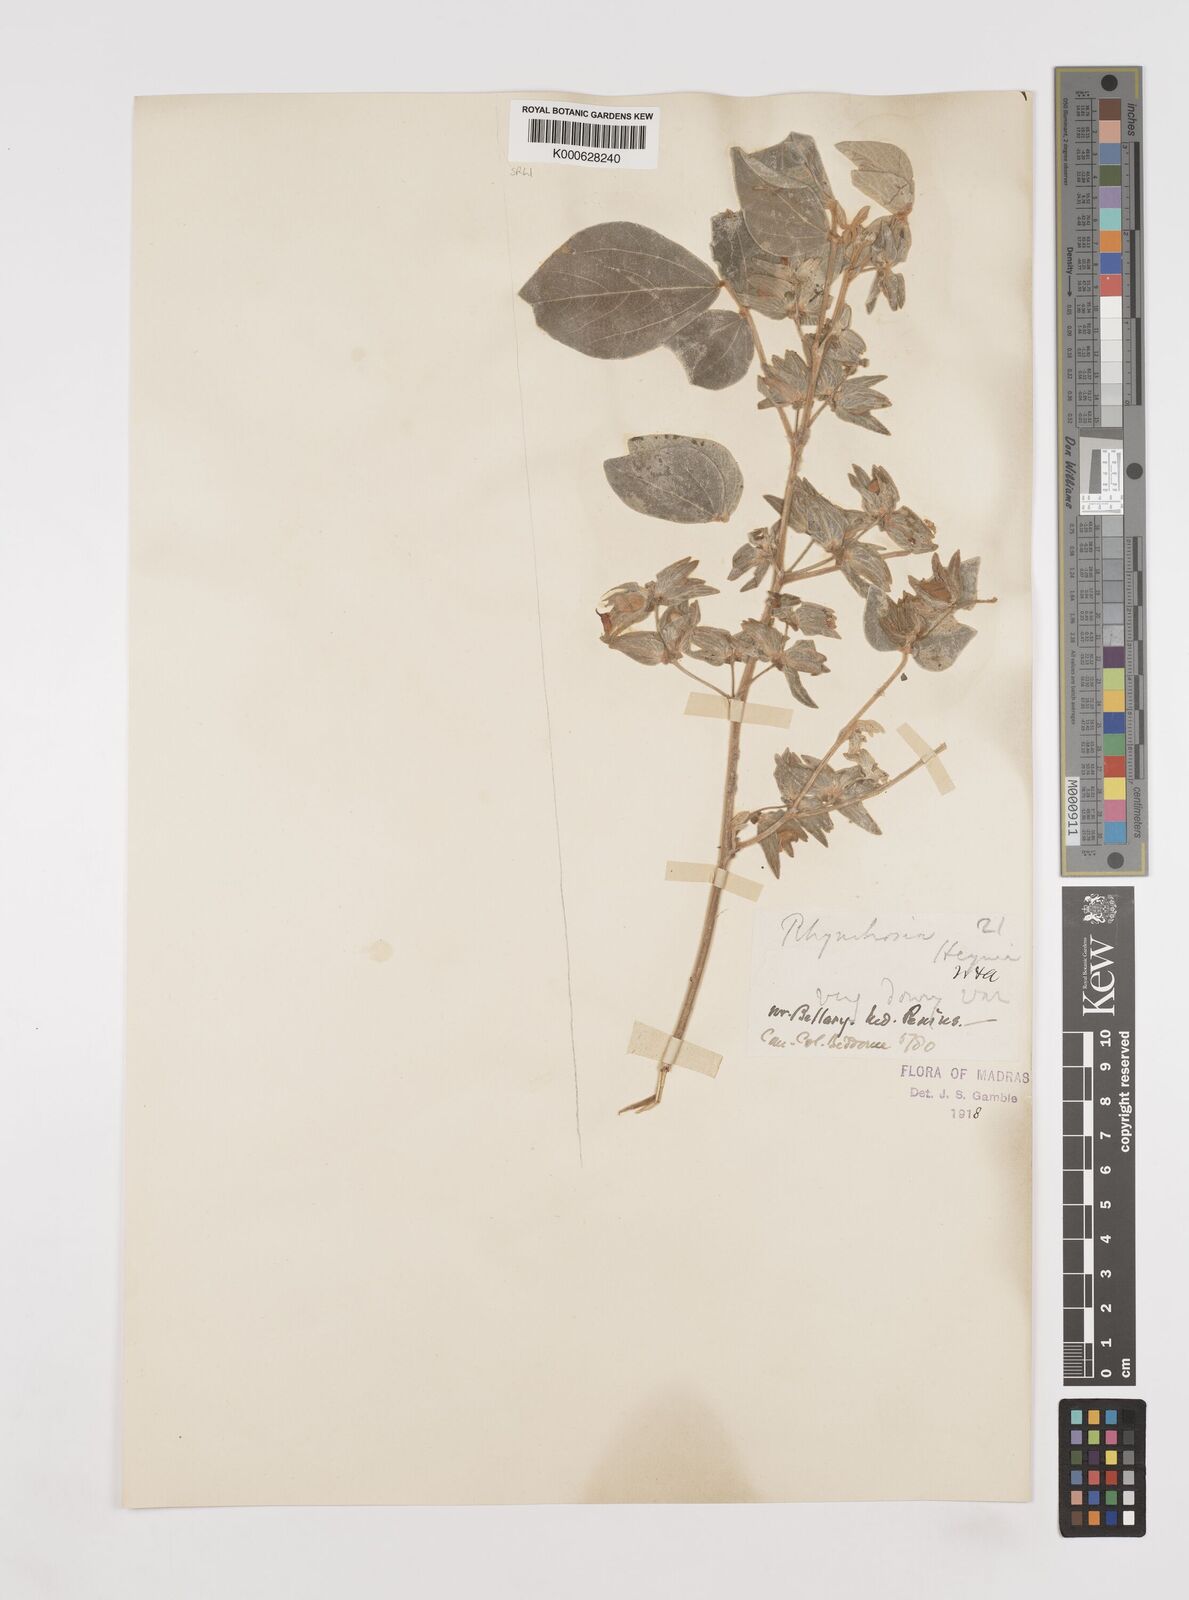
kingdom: Plantae
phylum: Tracheophyta
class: Magnoliopsida
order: Fabales
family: Fabaceae
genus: Rhynchosia
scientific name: Rhynchosia heynei
